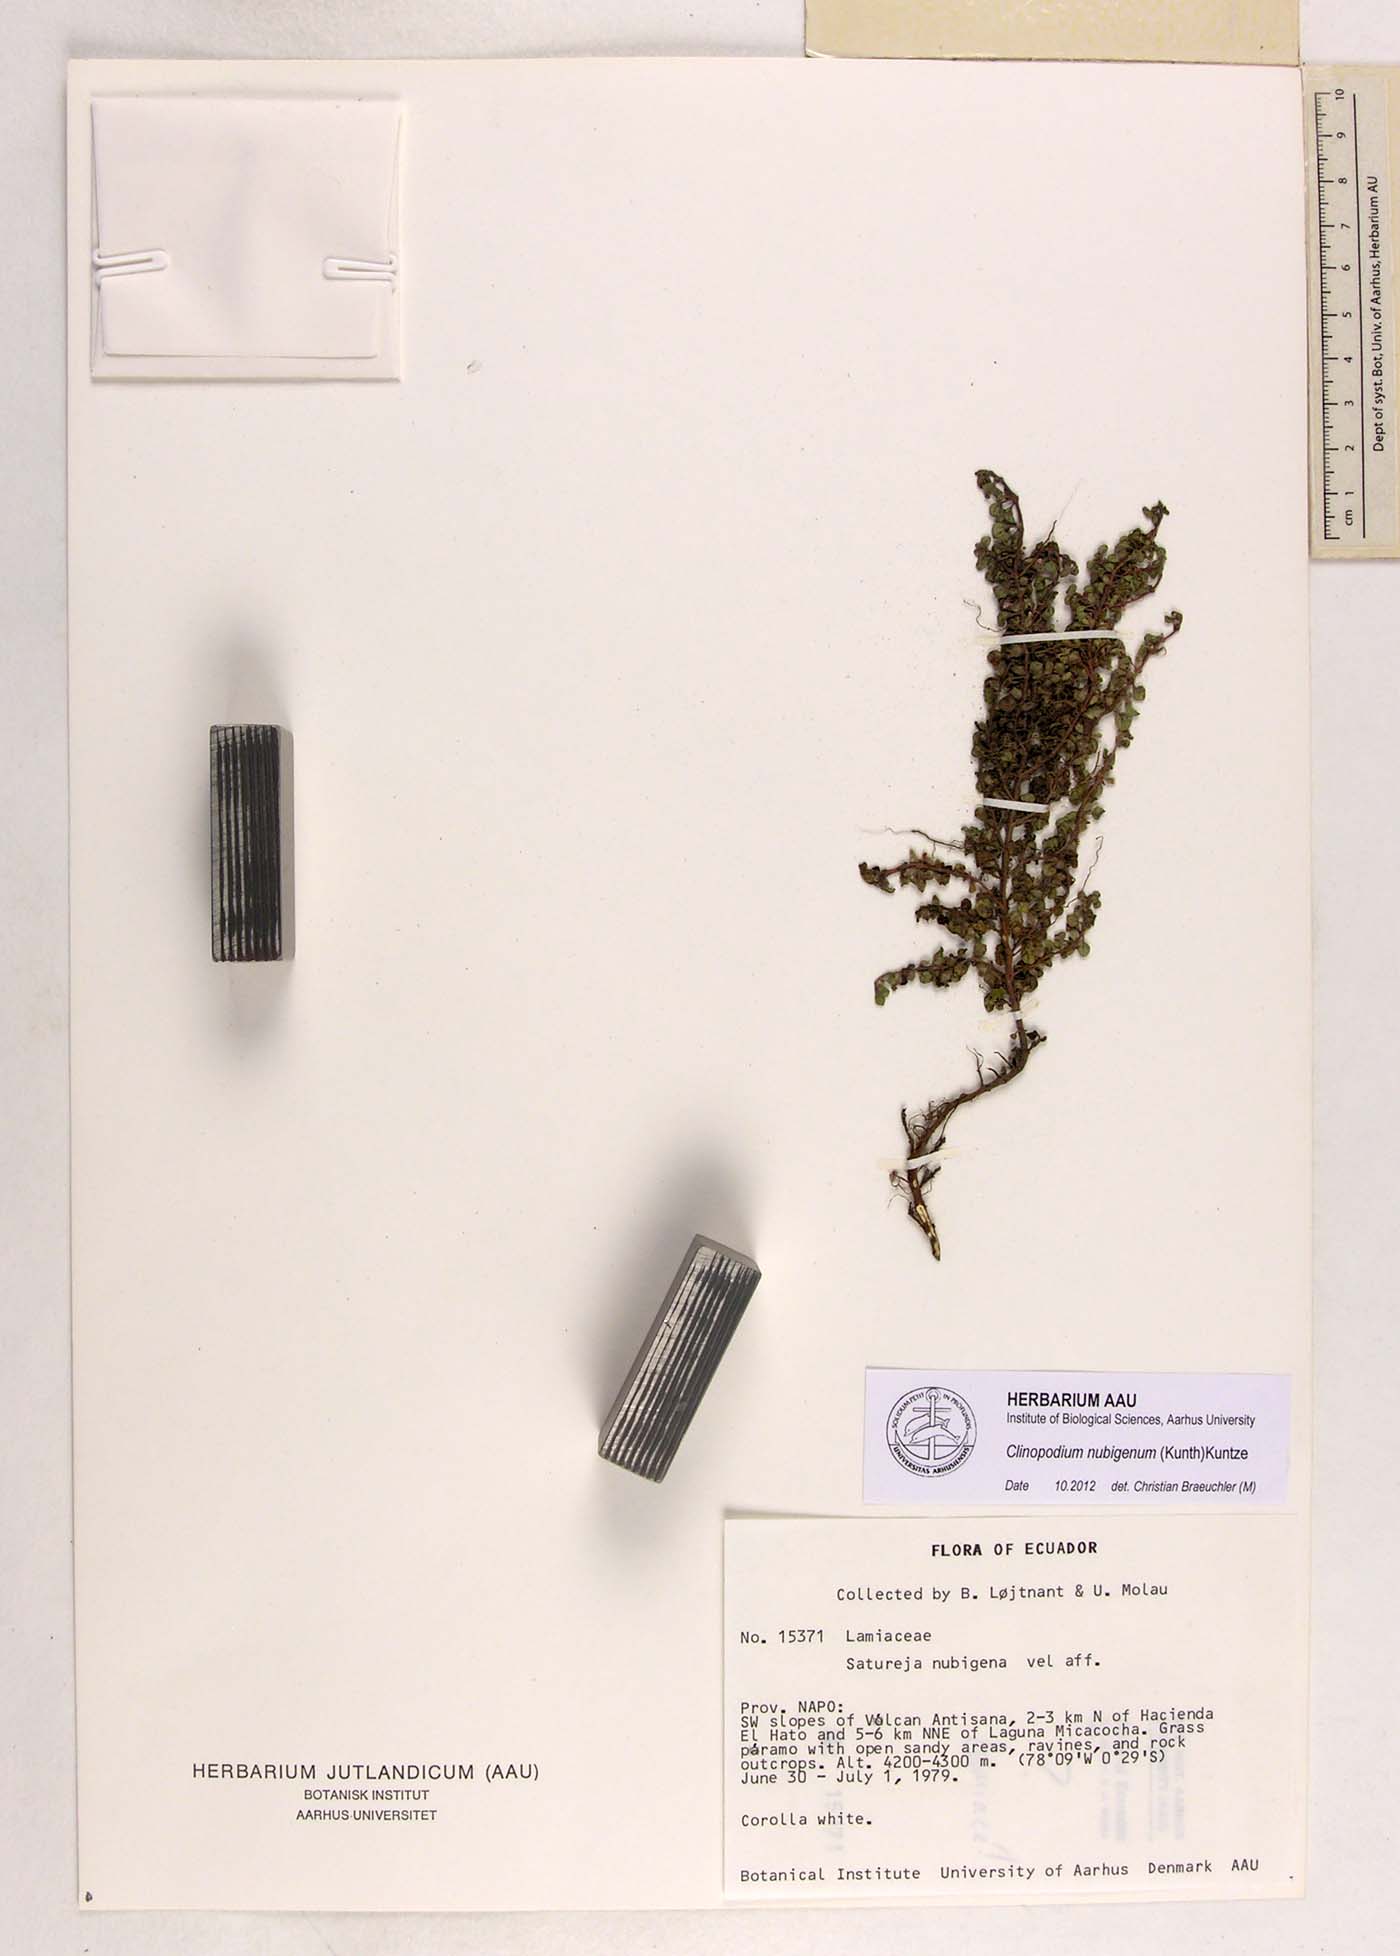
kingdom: Plantae
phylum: Tracheophyta
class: Magnoliopsida
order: Lamiales
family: Lamiaceae
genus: Clinopodium
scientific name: Clinopodium nubigenum
